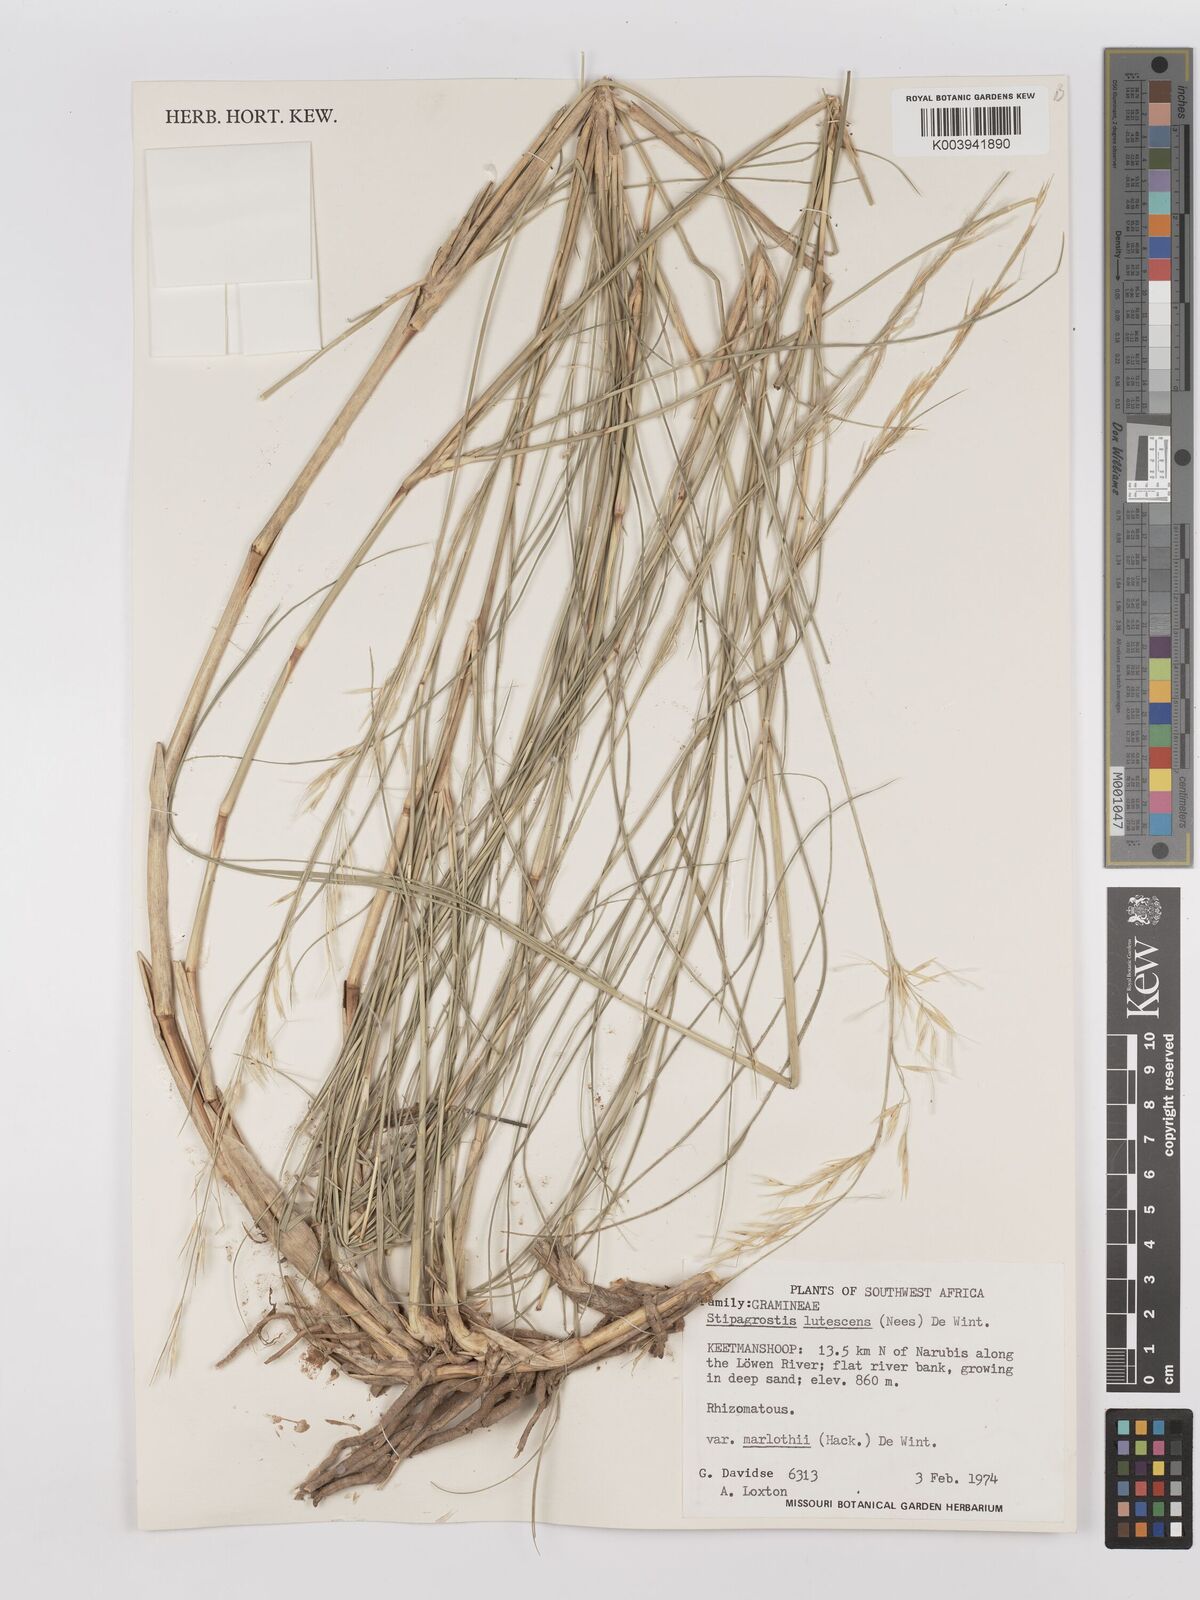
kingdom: Plantae
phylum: Tracheophyta
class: Liliopsida
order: Poales
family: Poaceae
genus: Stipagrostis
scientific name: Stipagrostis lutescens
